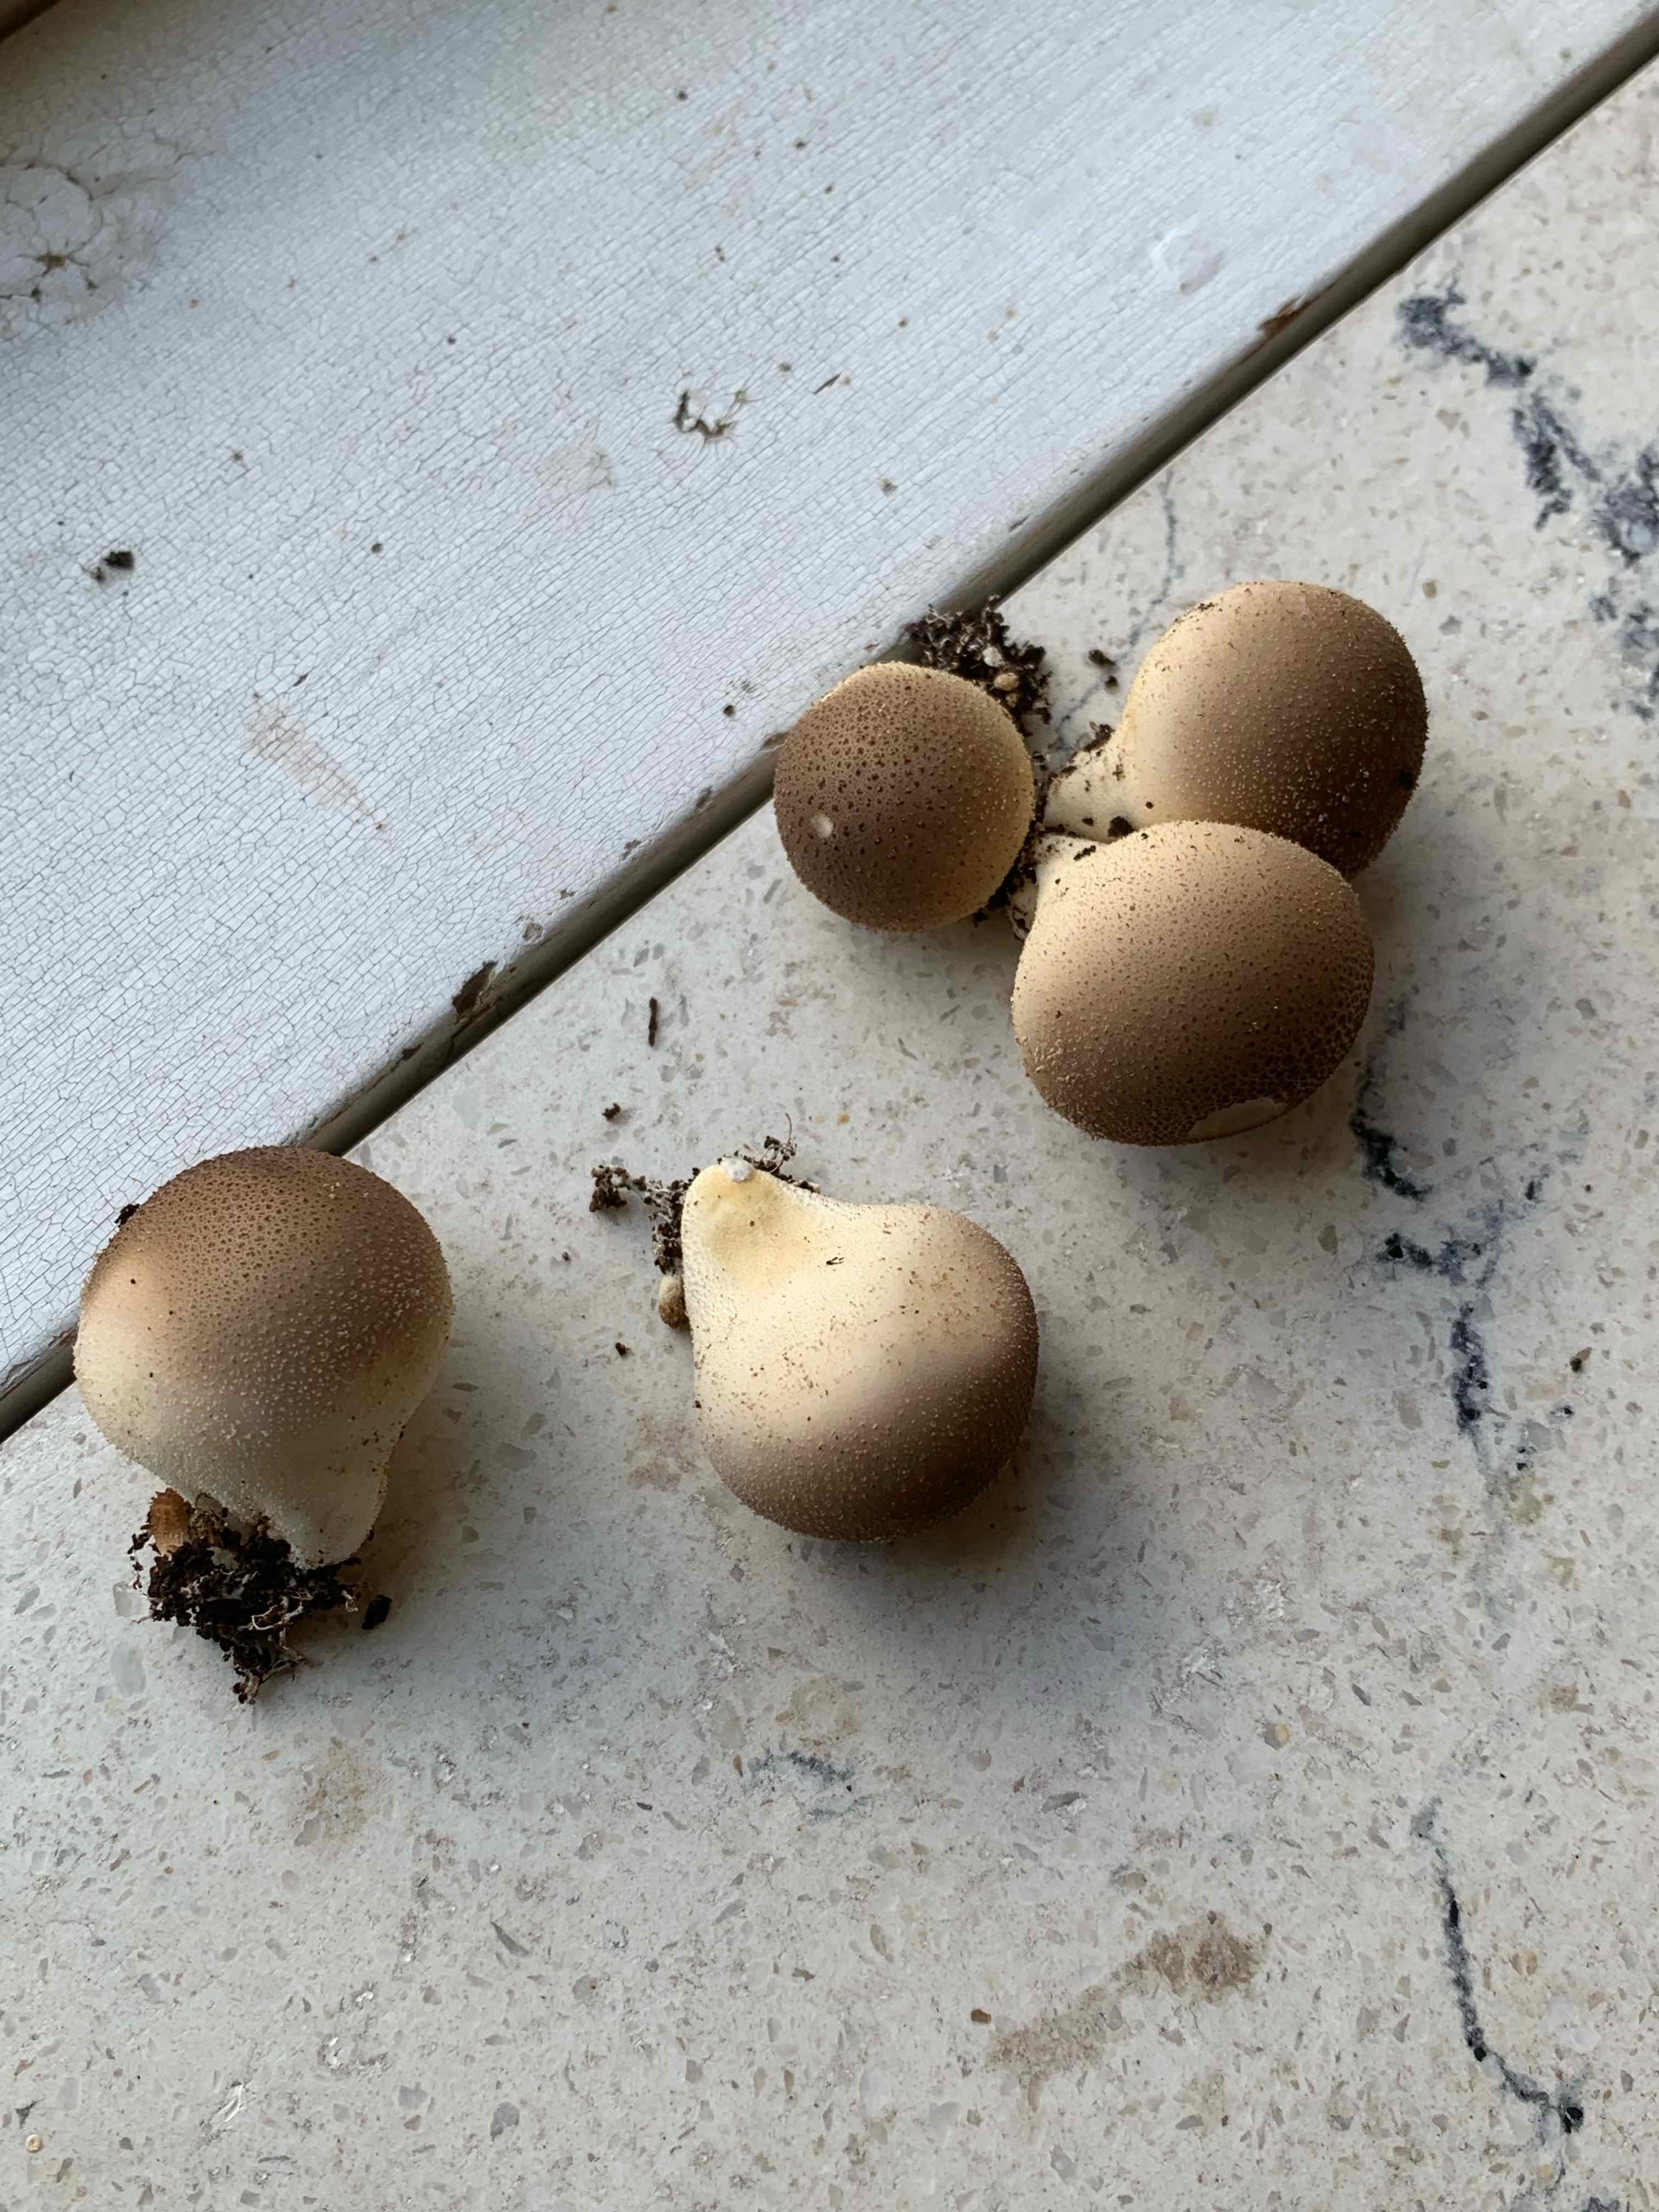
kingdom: Fungi
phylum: Basidiomycota
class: Agaricomycetes
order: Agaricales
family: Lycoperdaceae
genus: Apioperdon
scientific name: Apioperdon pyriforme
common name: pære-støvbold
